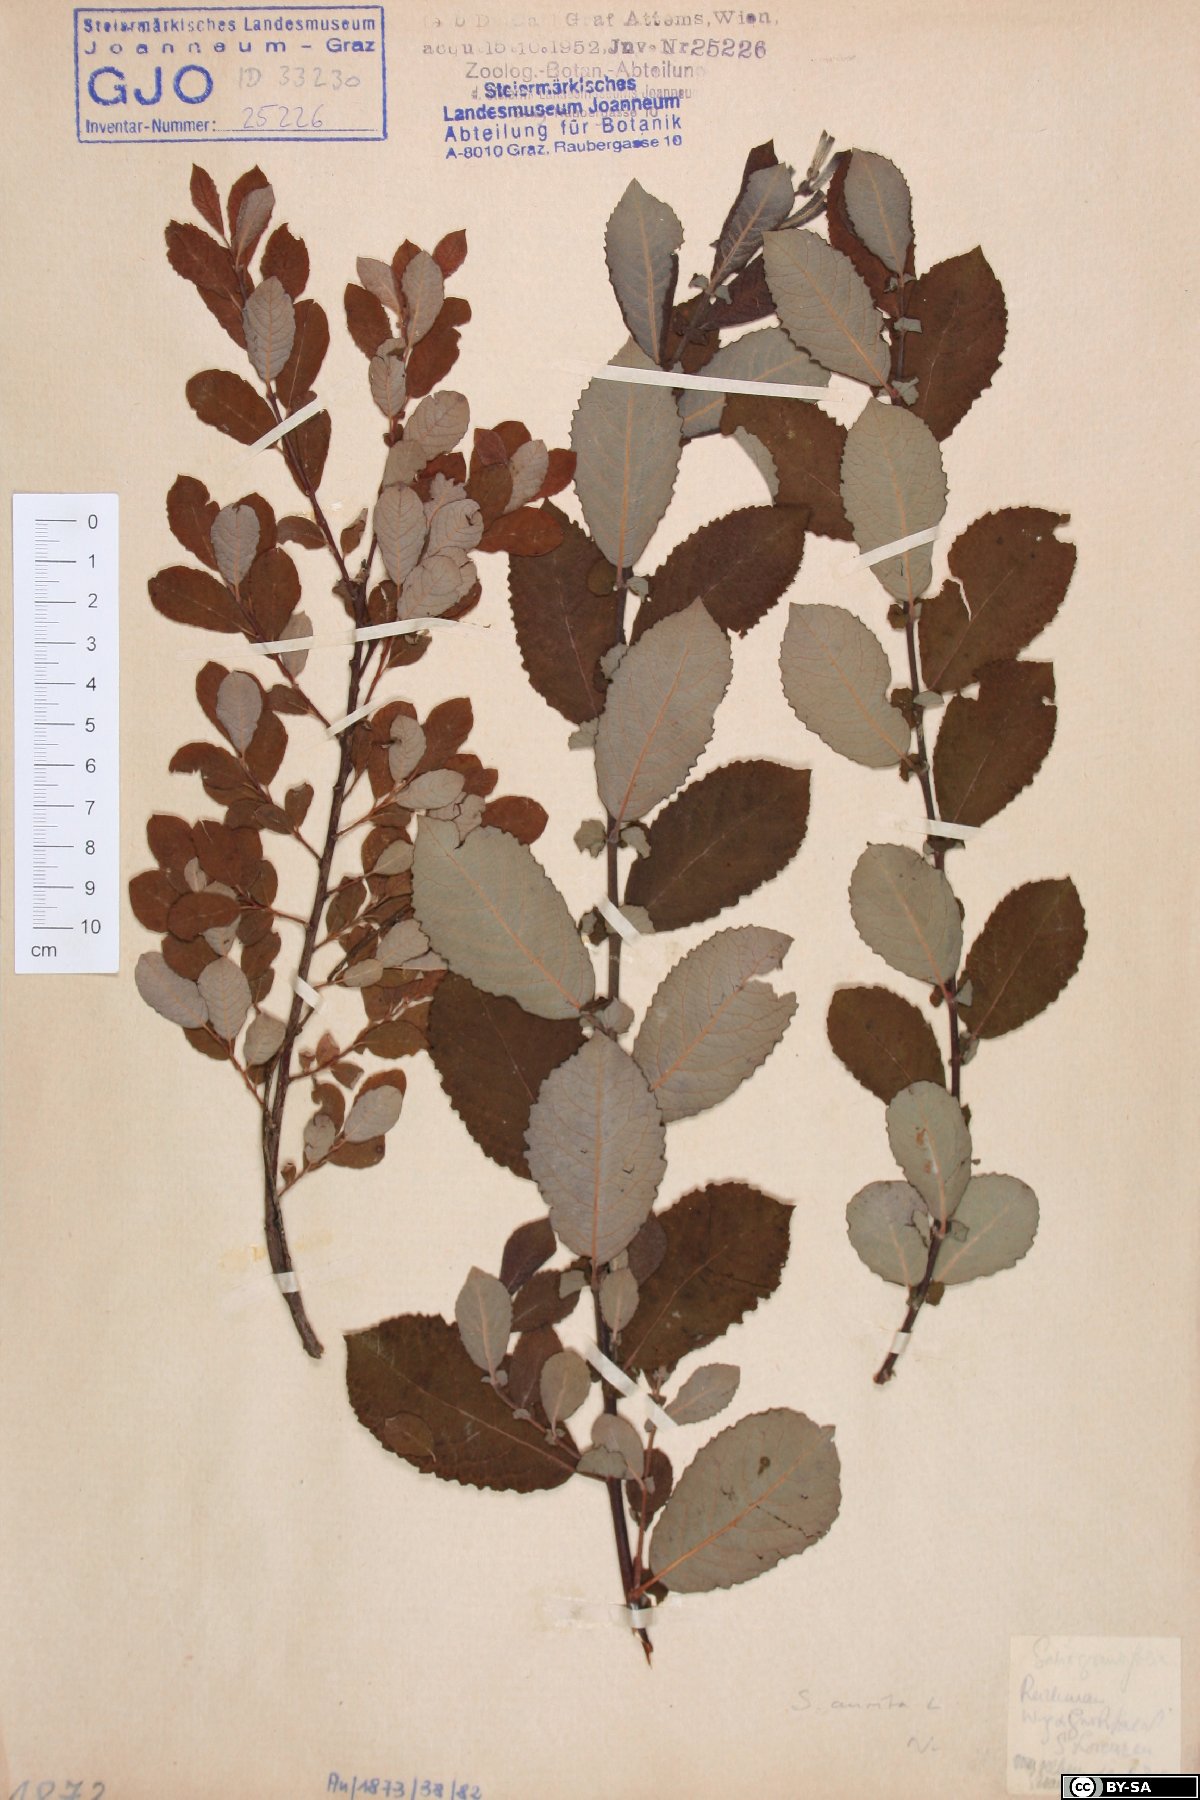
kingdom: Plantae
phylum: Tracheophyta
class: Magnoliopsida
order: Malpighiales
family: Salicaceae
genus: Salix
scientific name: Salix aurita
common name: Eared willow
